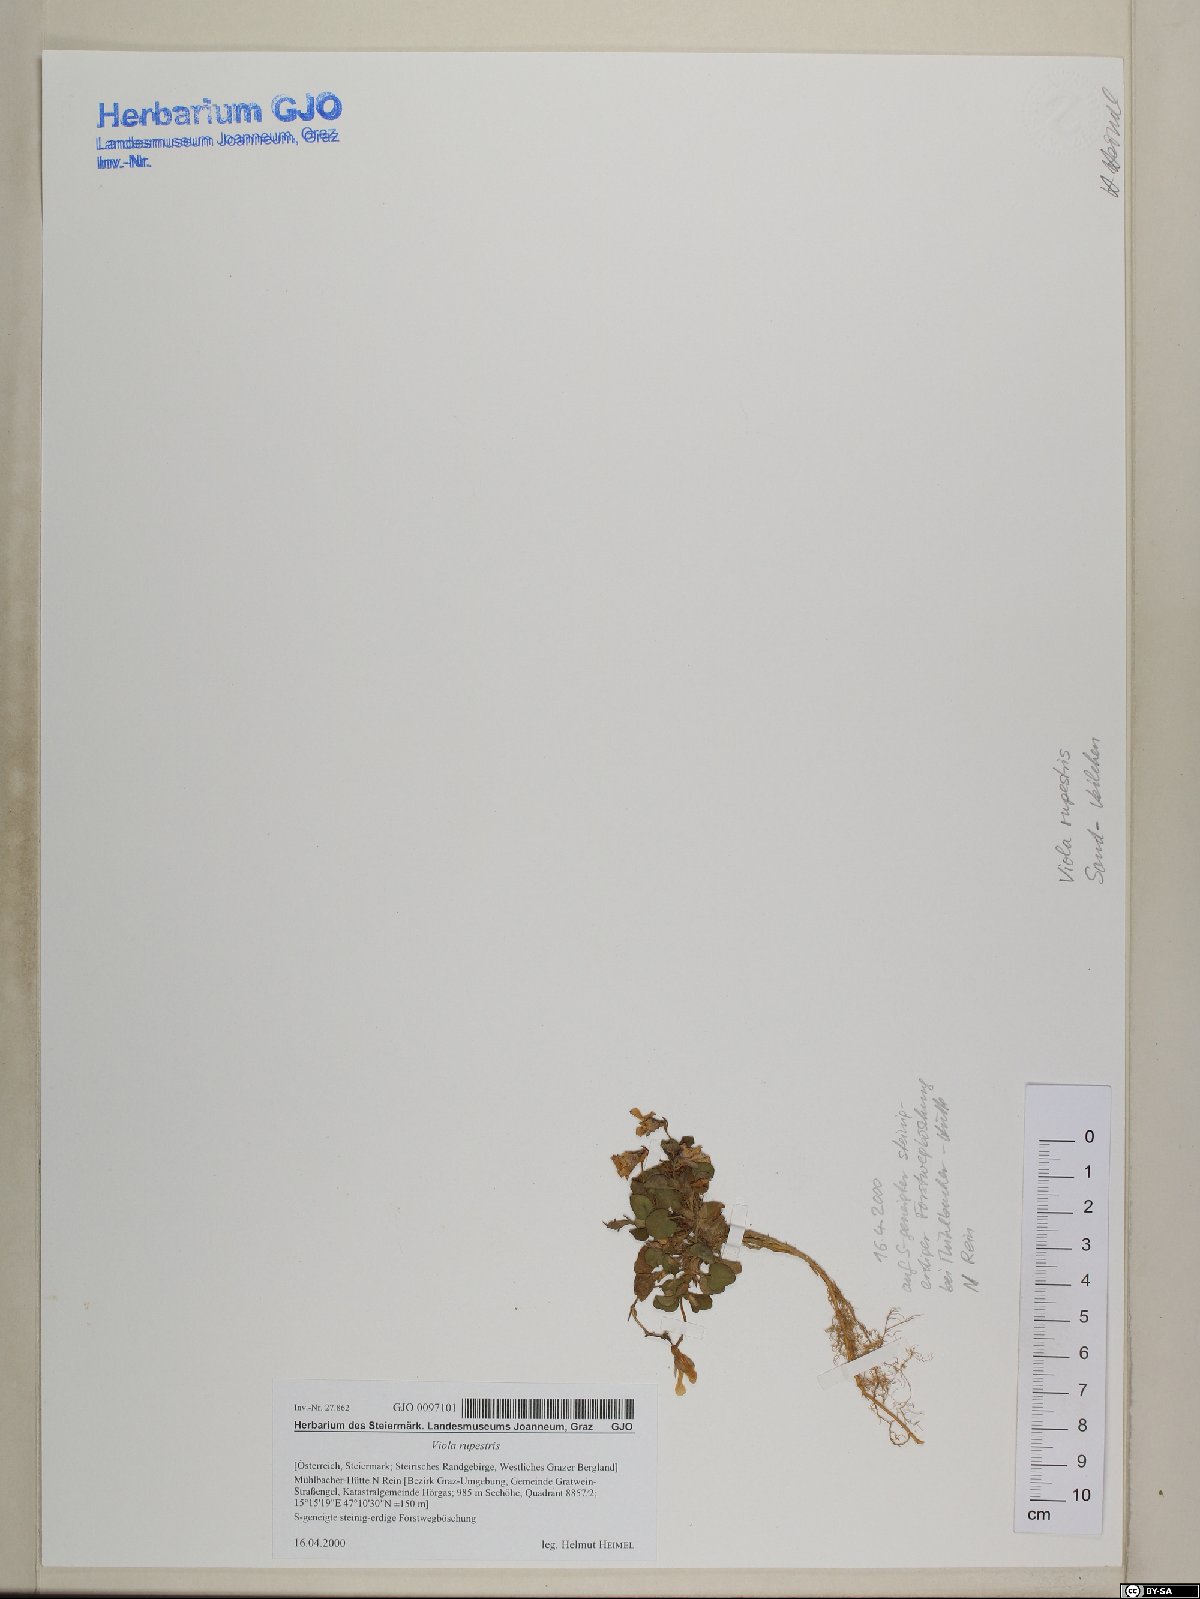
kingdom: Plantae
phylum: Tracheophyta
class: Magnoliopsida
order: Malpighiales
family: Violaceae
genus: Viola
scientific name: Viola rupestris
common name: Teesdale violet
